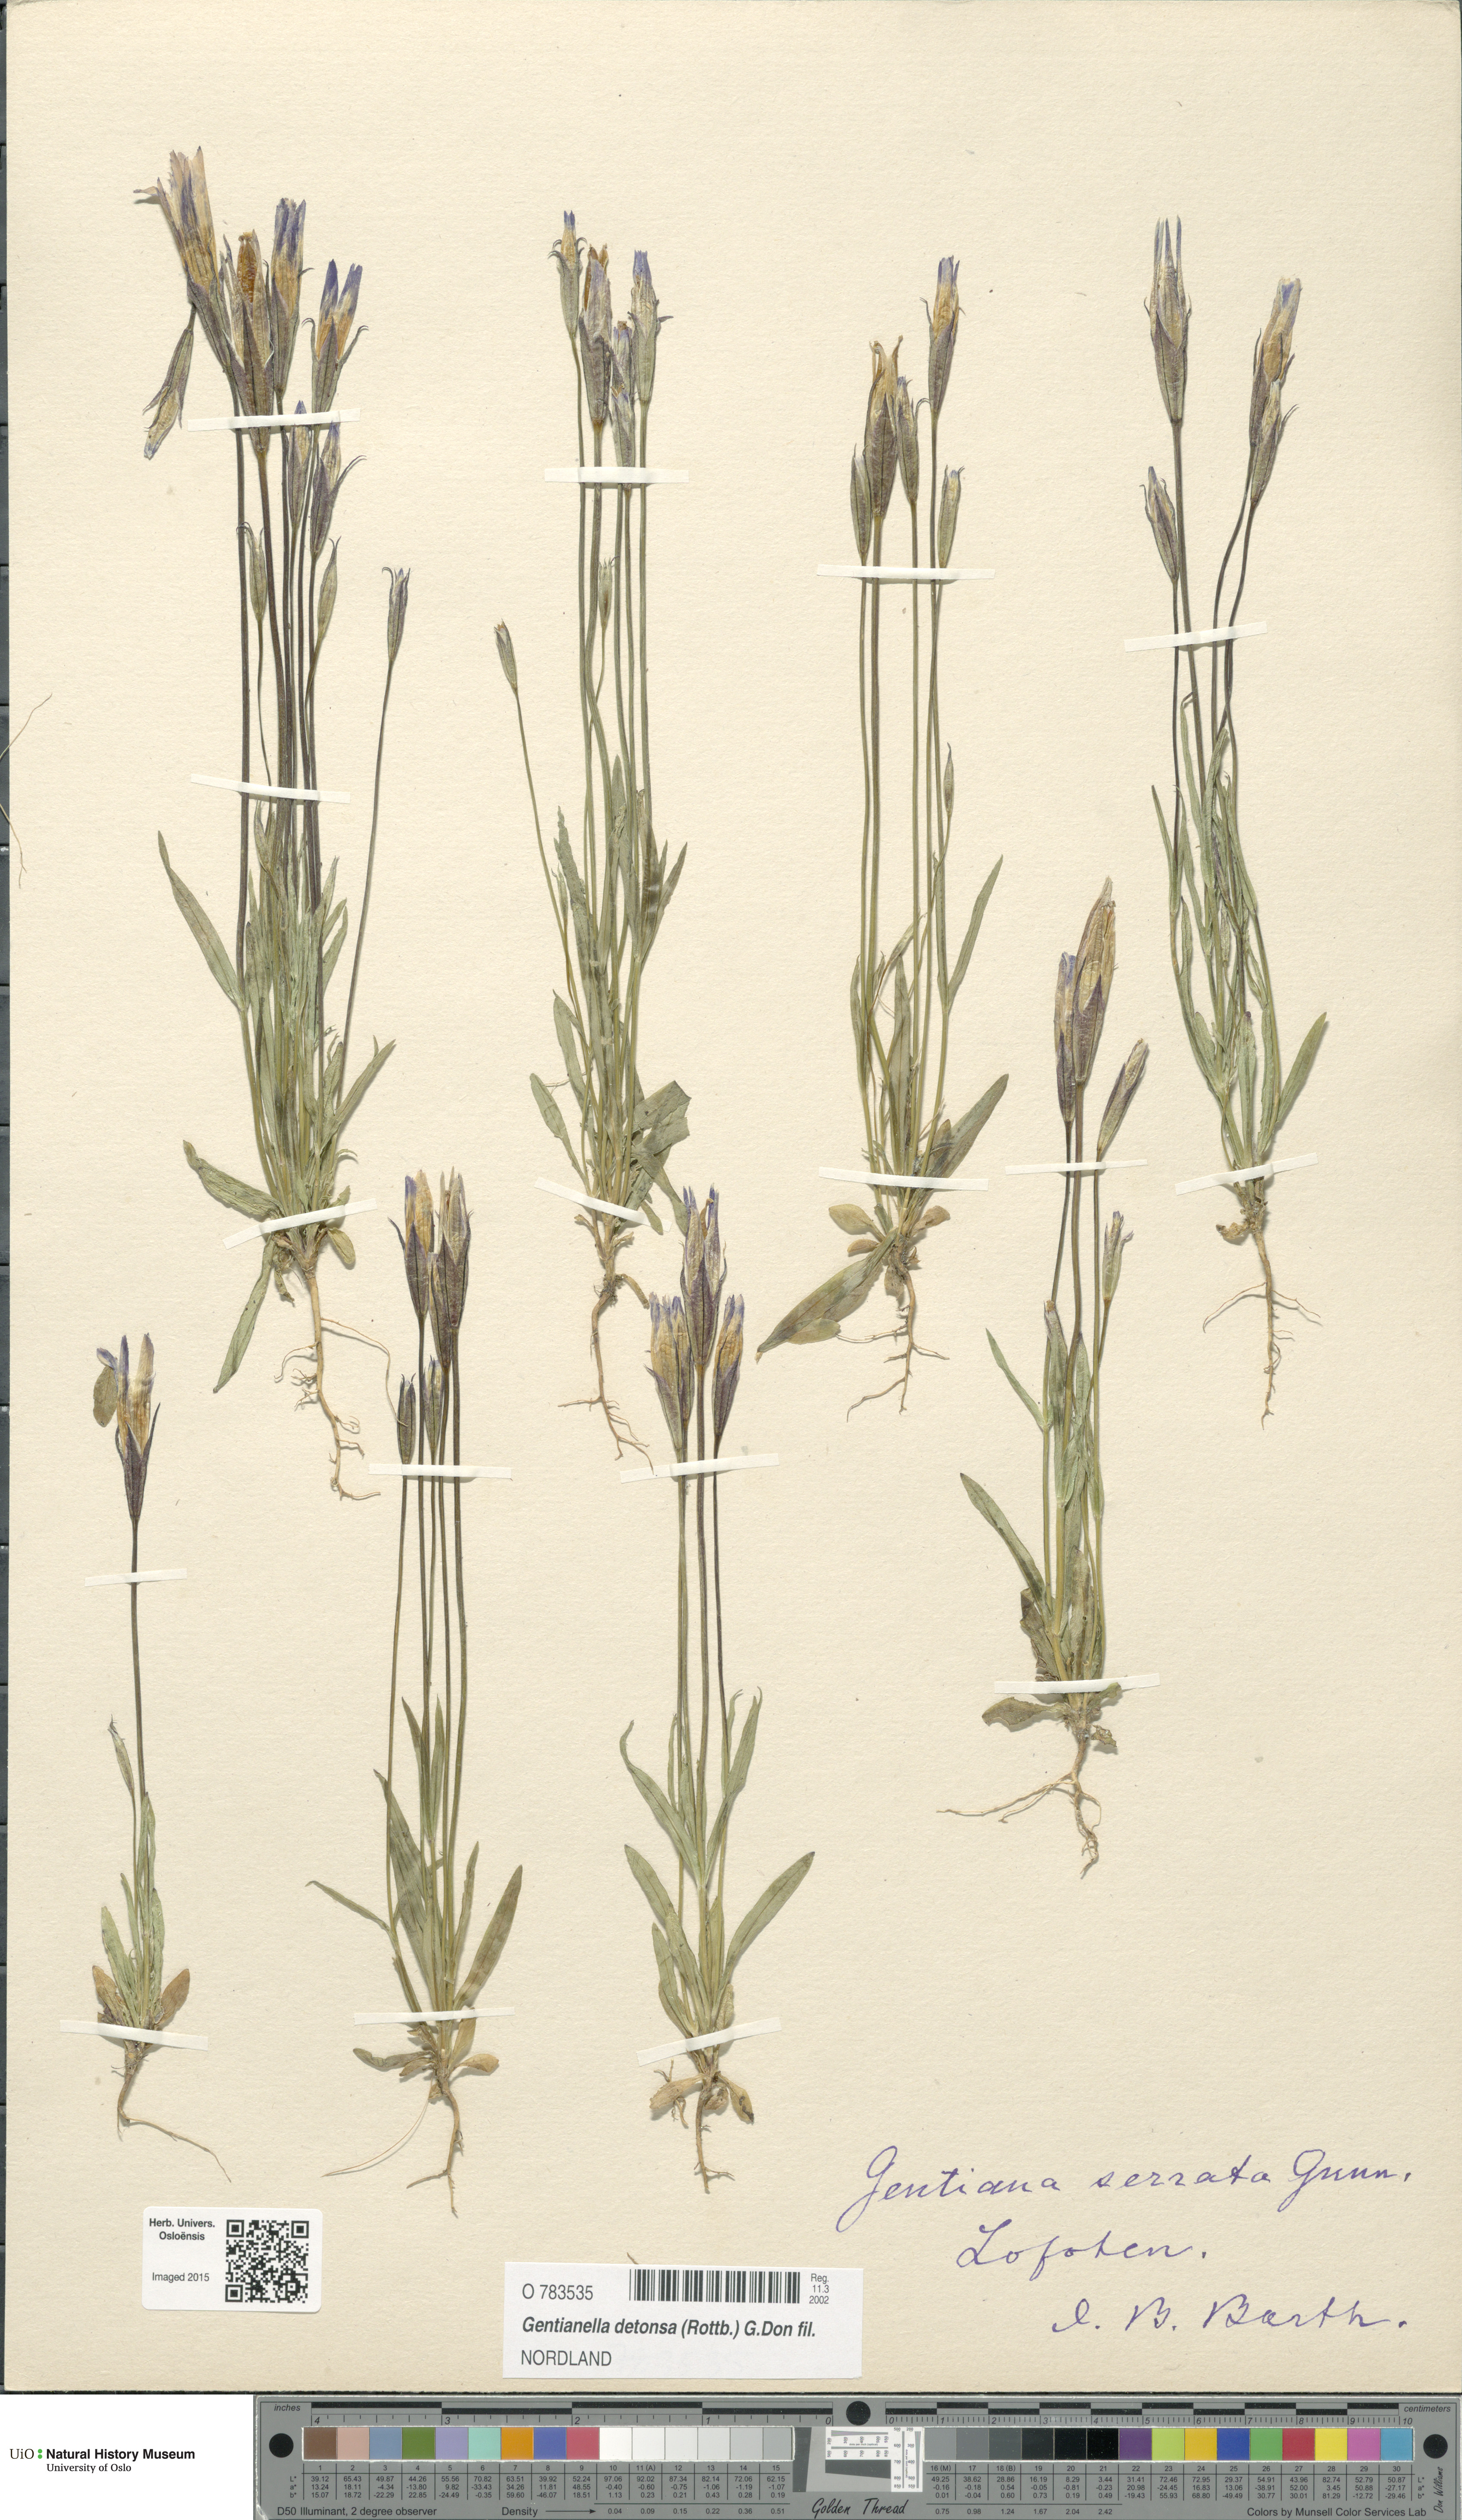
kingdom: Plantae
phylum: Tracheophyta
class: Magnoliopsida
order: Gentianales
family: Gentianaceae
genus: Gentianopsis
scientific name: Gentianopsis detonsa
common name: Fringed-gentian
